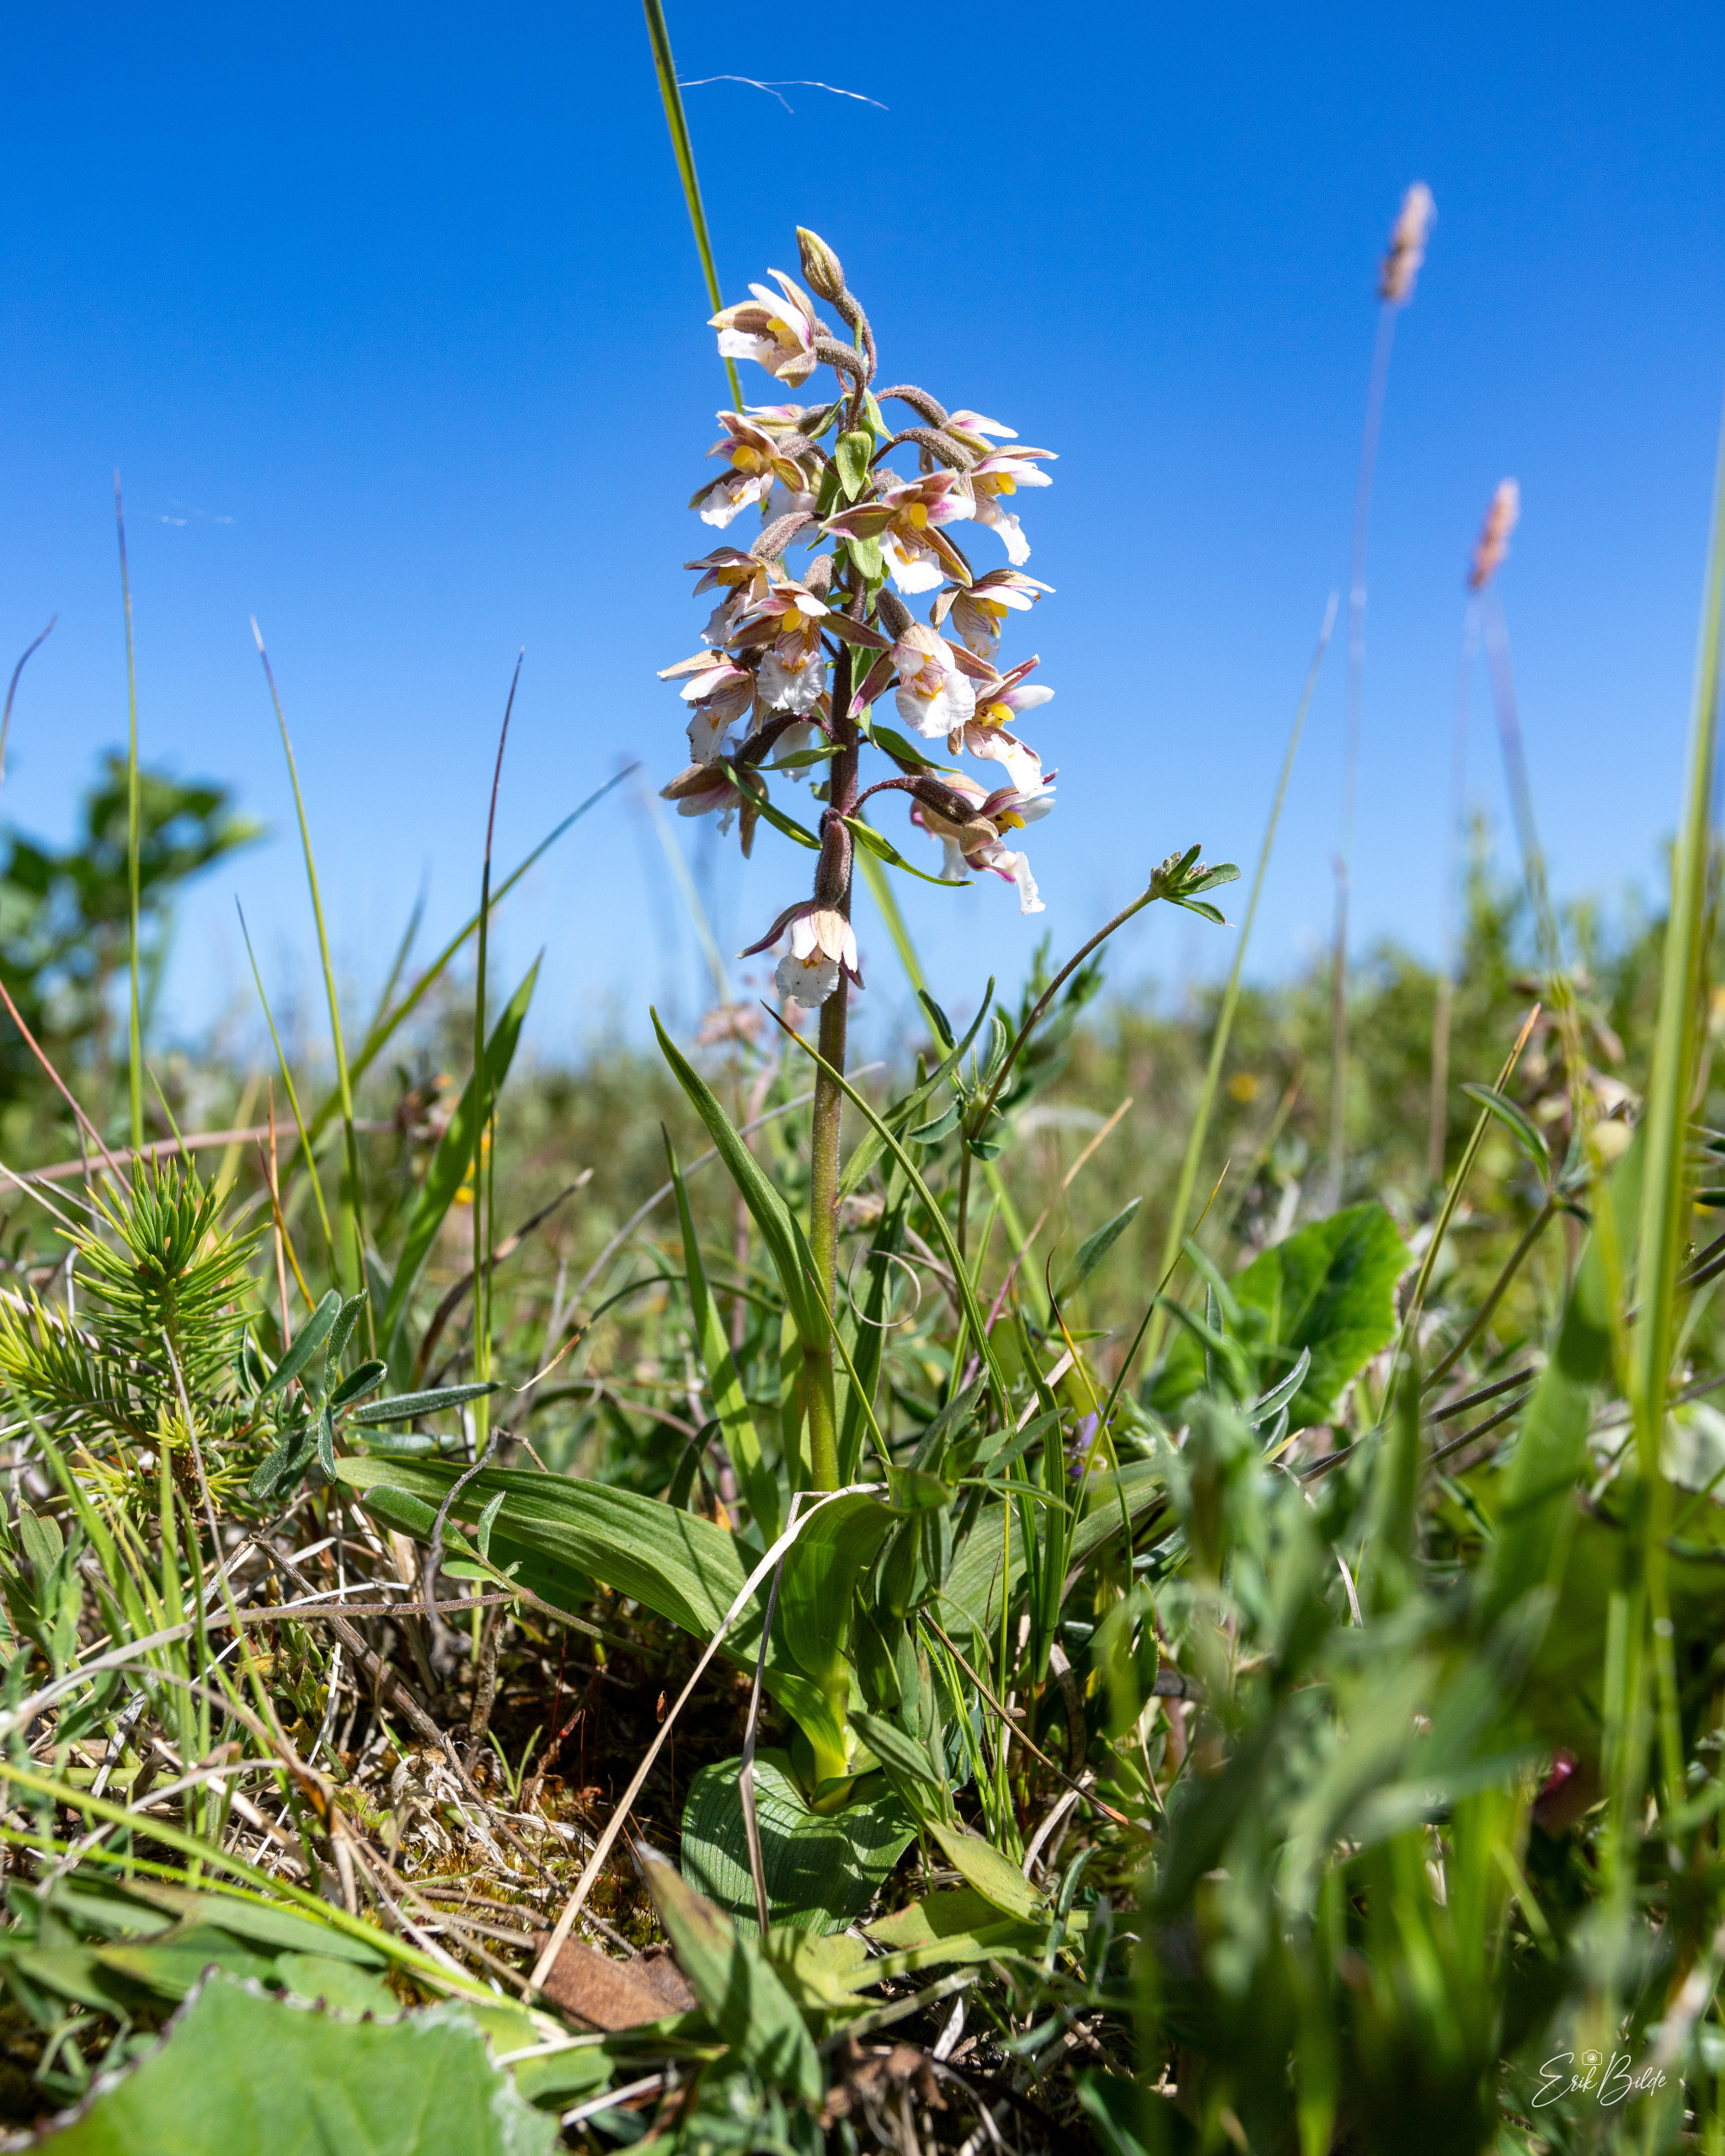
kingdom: Plantae
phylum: Tracheophyta
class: Liliopsida
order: Asparagales
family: Orchidaceae
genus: Epipactis
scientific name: Epipactis palustris
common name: Sump-hullæbe
